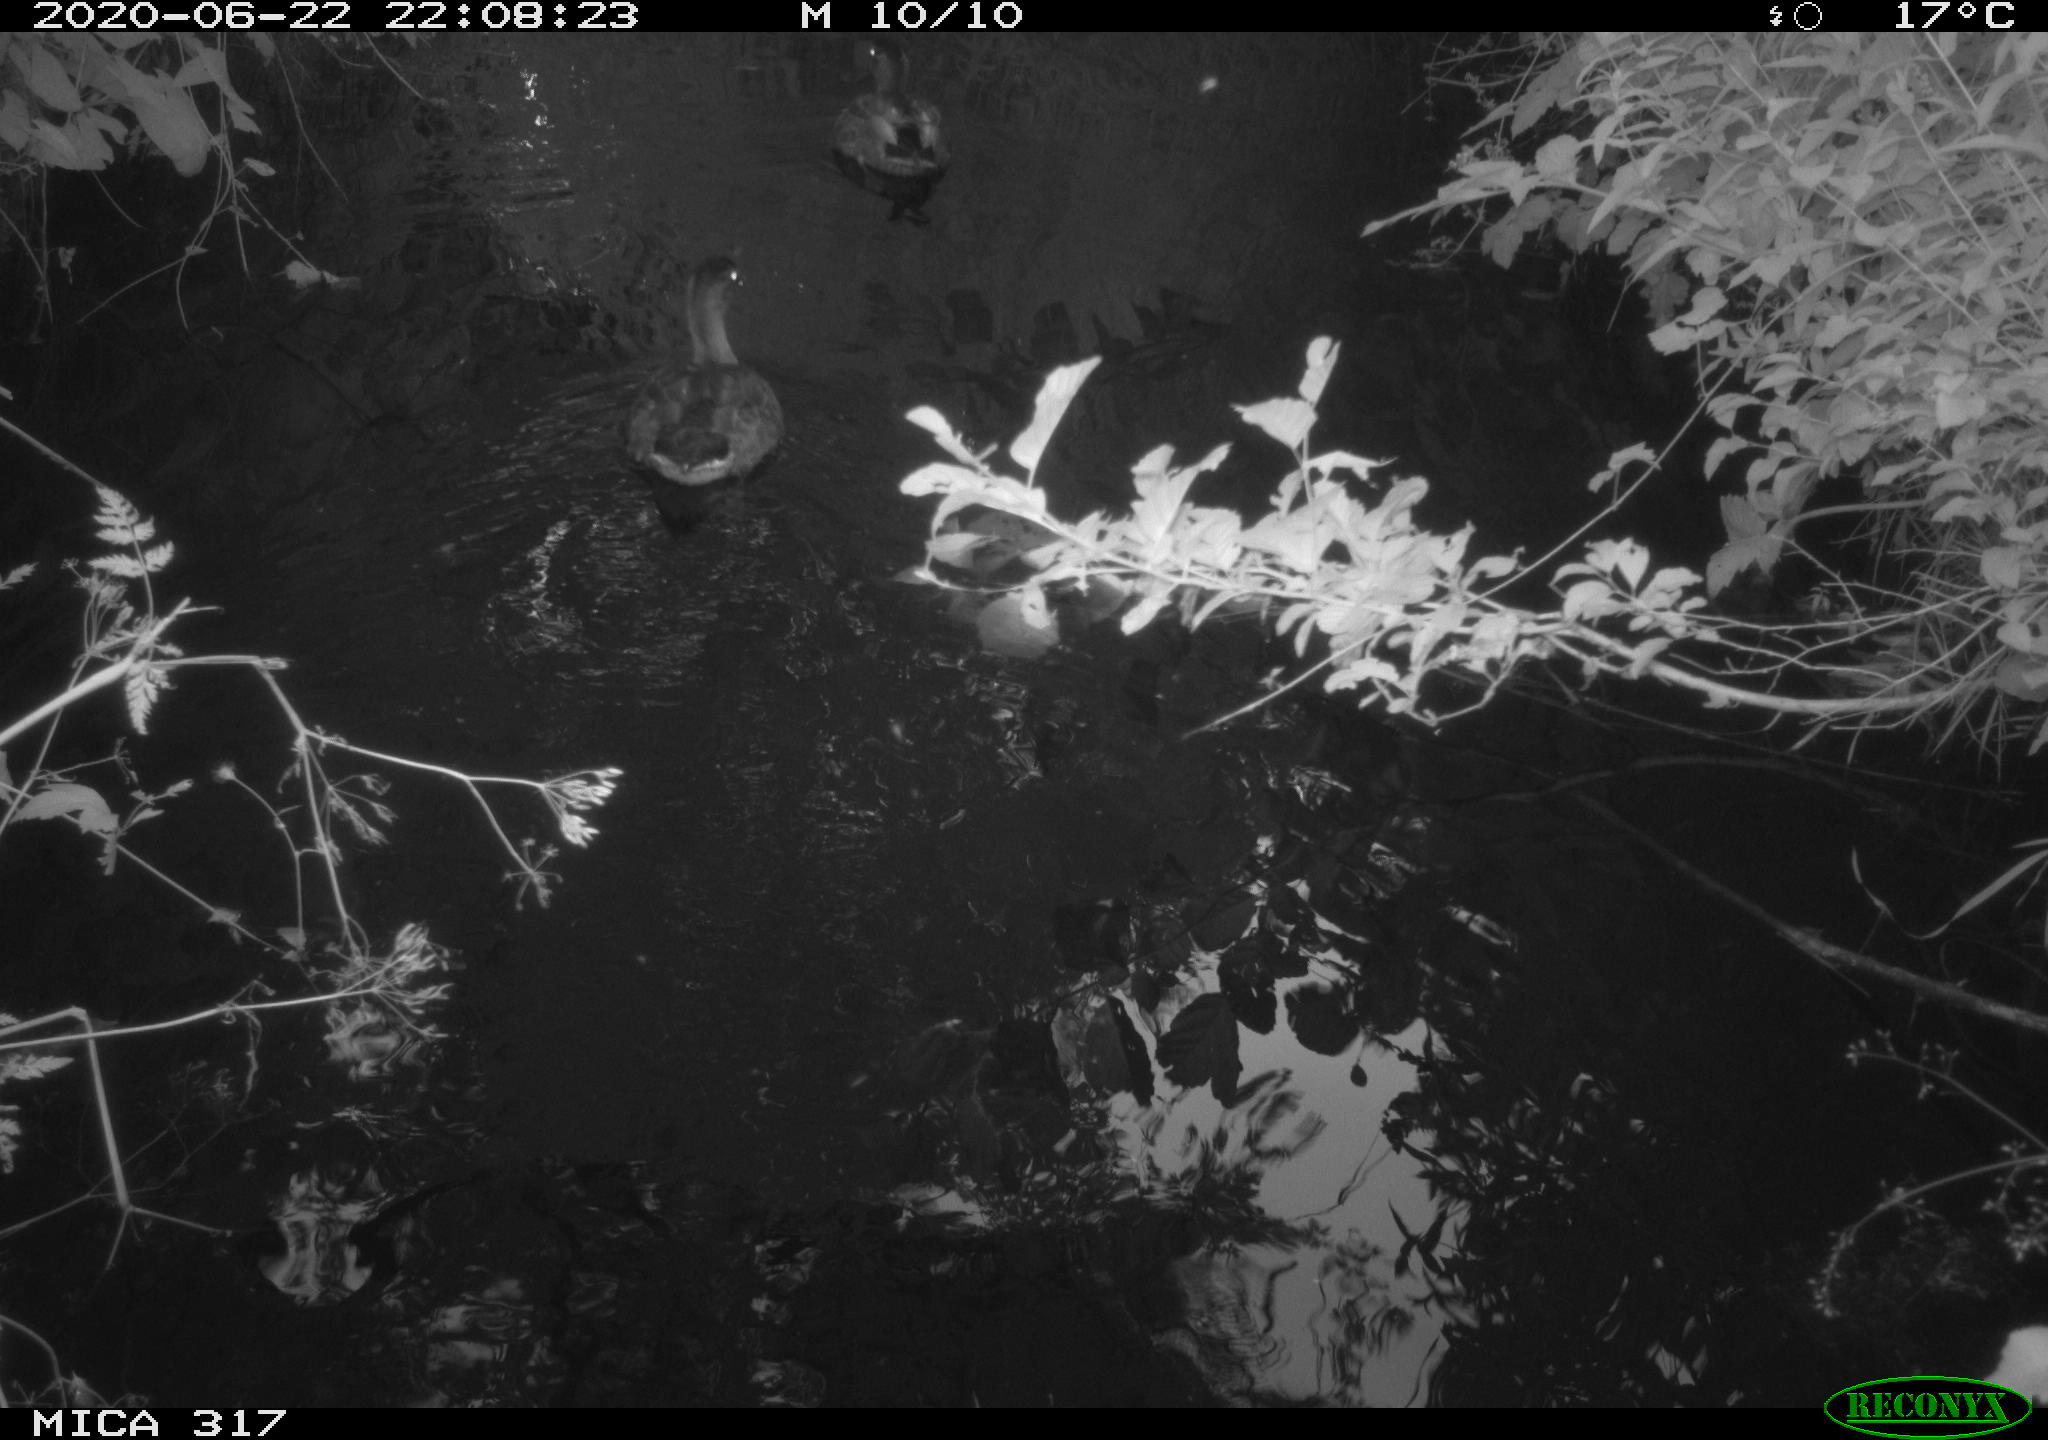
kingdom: Animalia
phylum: Chordata
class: Aves
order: Anseriformes
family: Anatidae
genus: Anas
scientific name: Anas platyrhynchos
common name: Mallard
